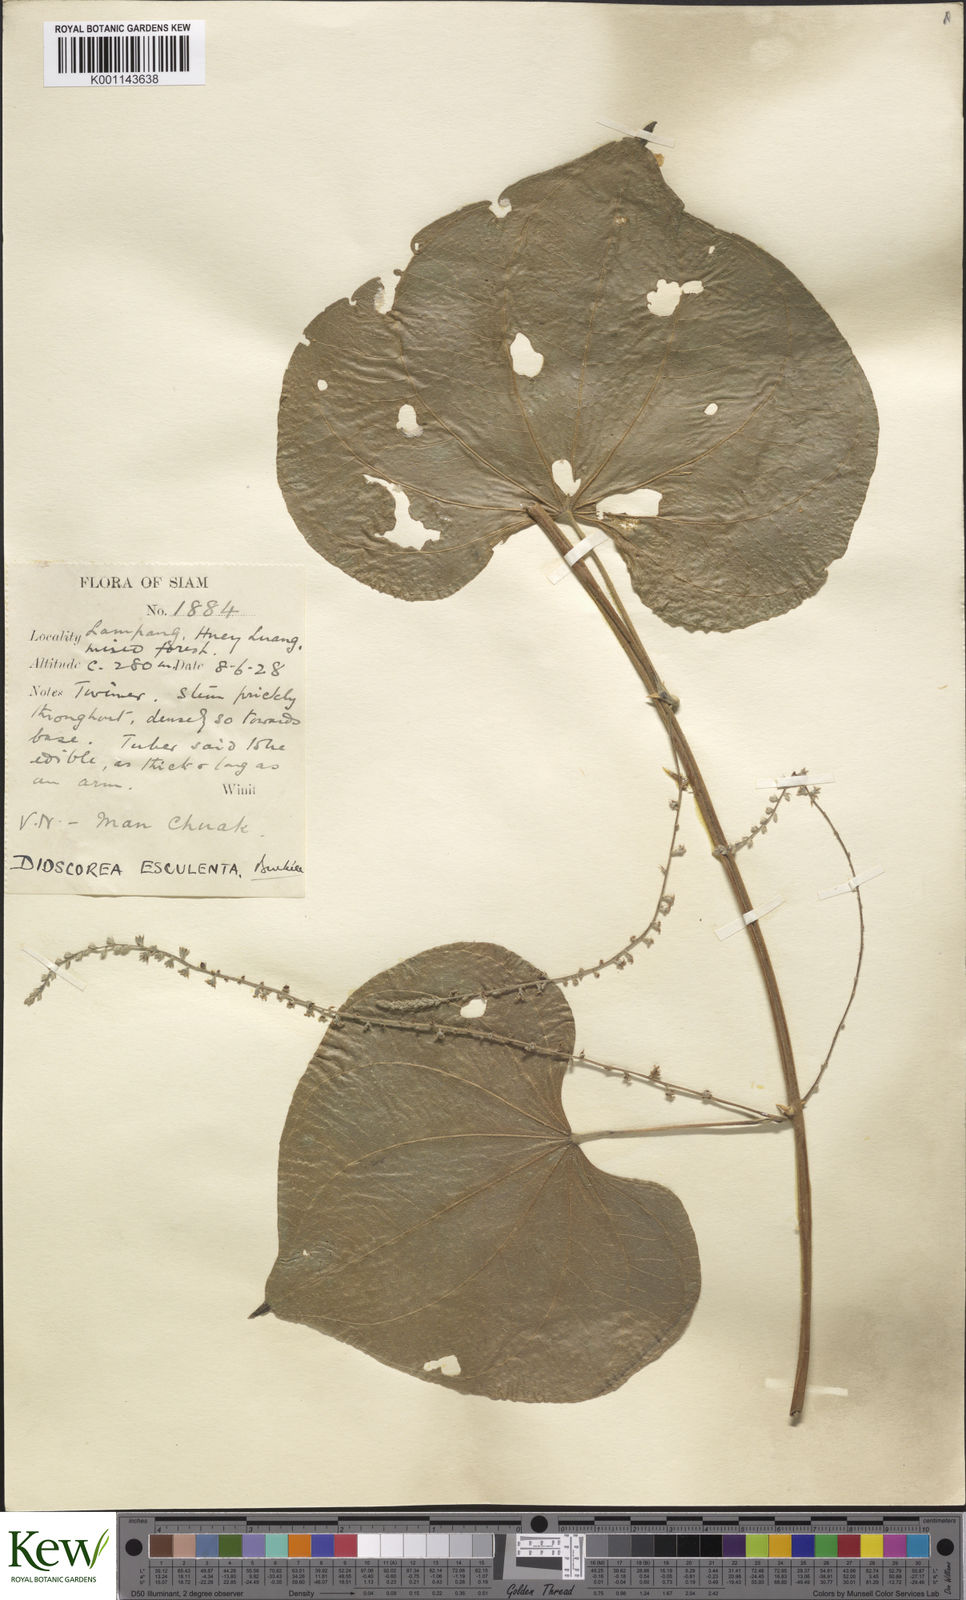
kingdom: Plantae
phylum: Tracheophyta
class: Liliopsida
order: Dioscoreales
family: Dioscoreaceae
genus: Dioscorea
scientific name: Dioscorea esculenta
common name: Chinese yam
